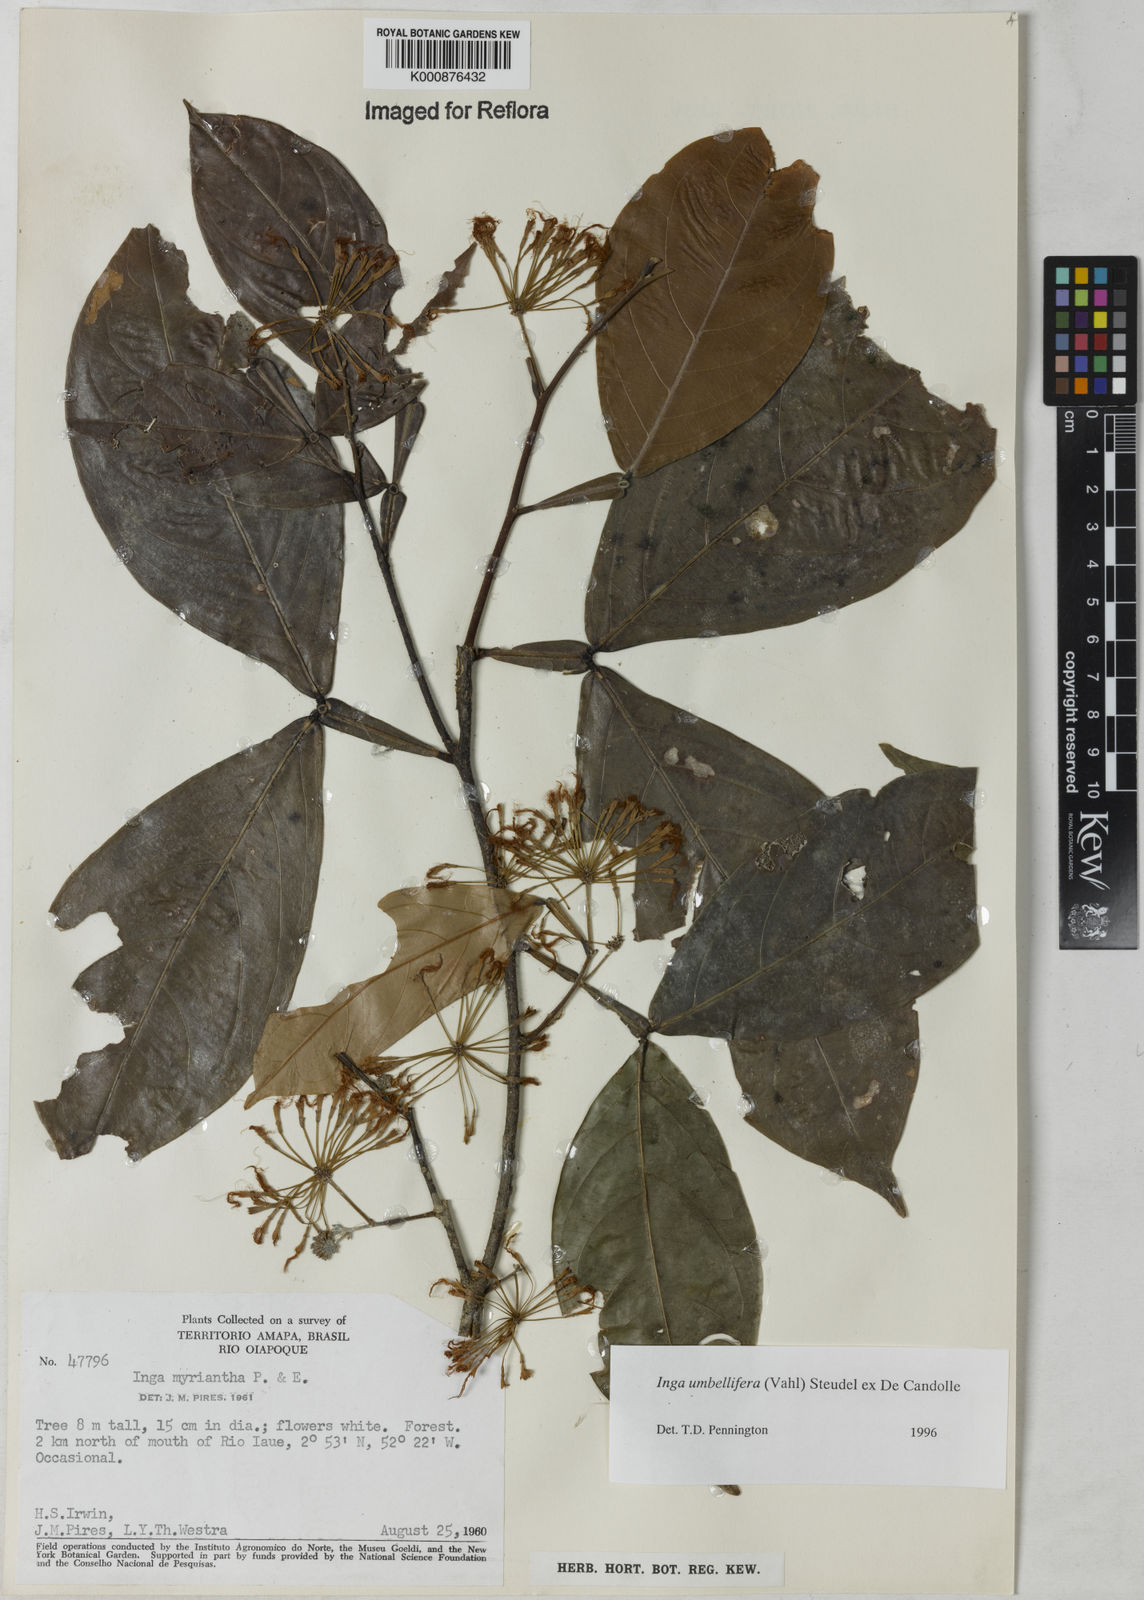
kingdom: Plantae
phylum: Tracheophyta
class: Magnoliopsida
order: Fabales
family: Fabaceae
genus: Inga
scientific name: Inga umbellifera
